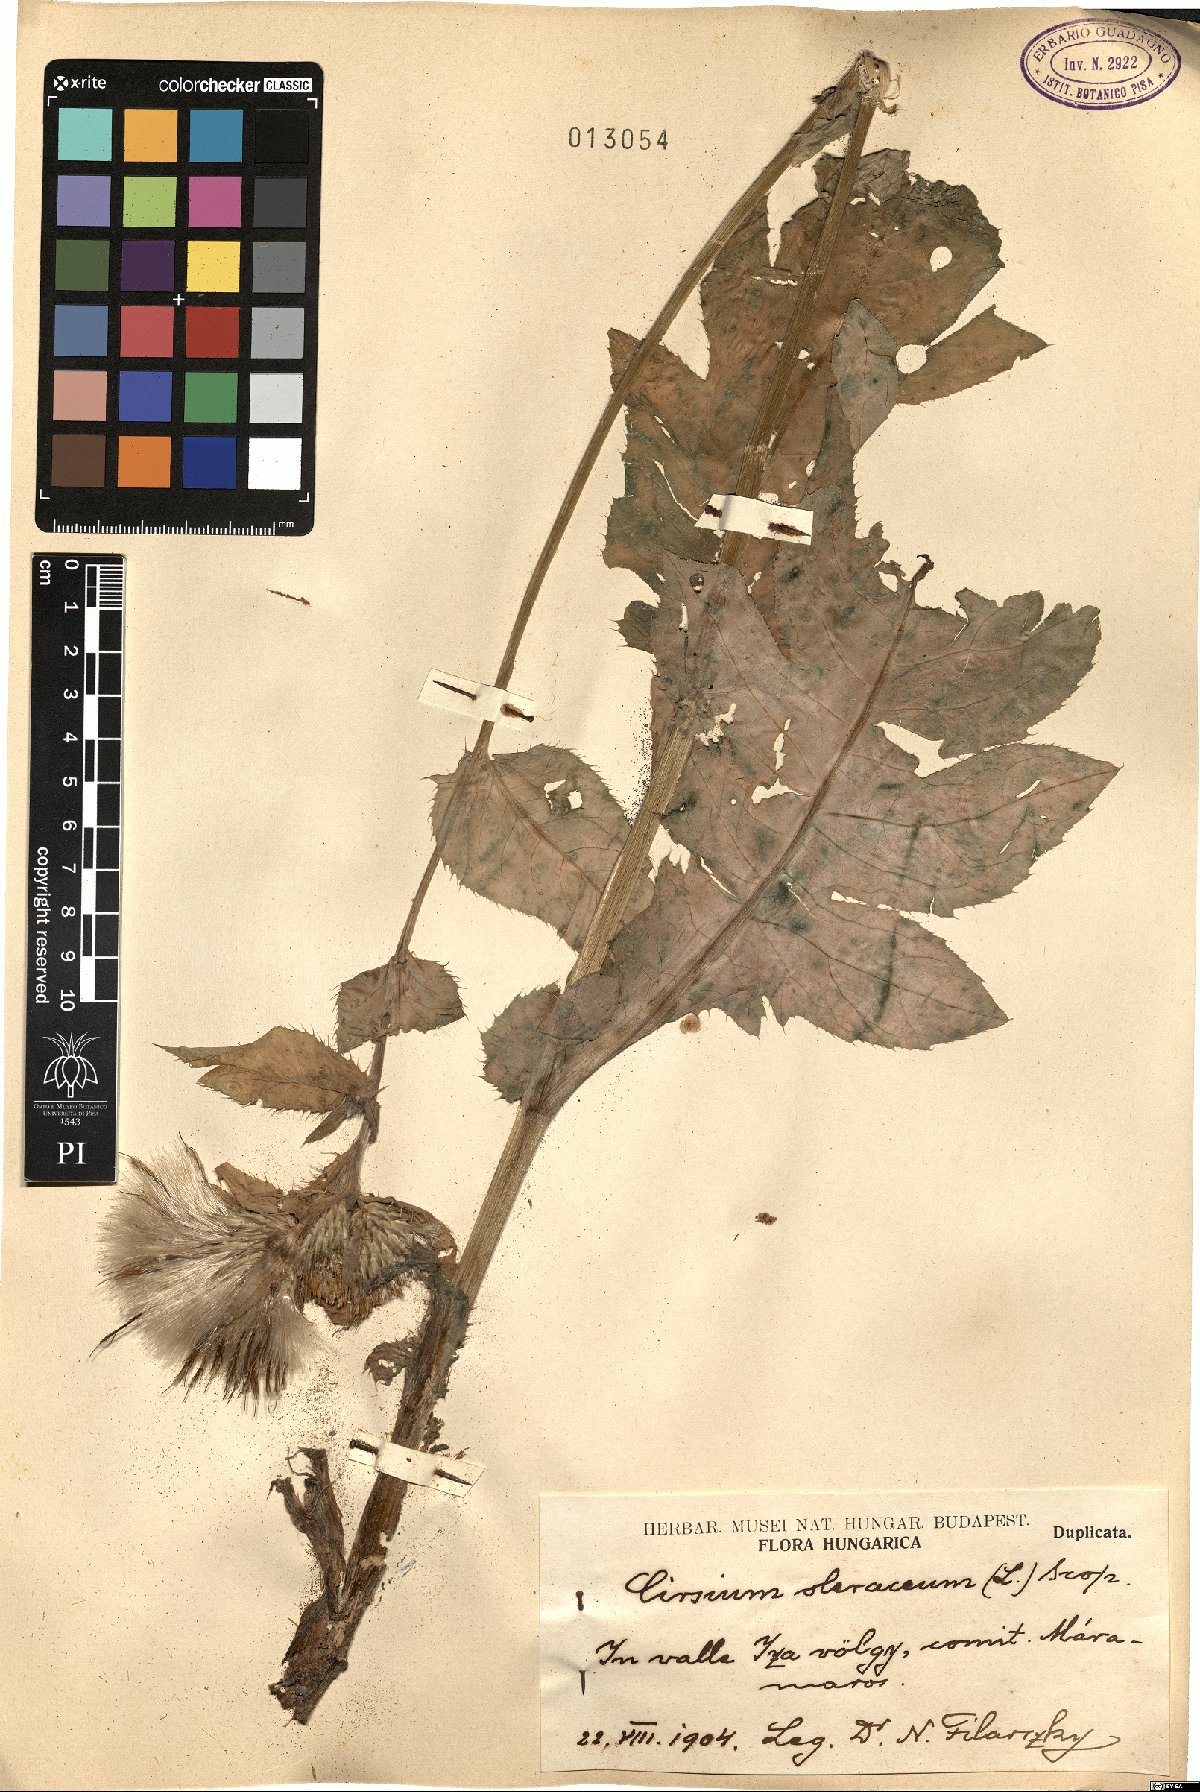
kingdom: Plantae
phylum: Tracheophyta
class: Magnoliopsida
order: Asterales
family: Asteraceae
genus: Cirsium
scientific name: Cirsium oleraceum
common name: Cabbage thistle
